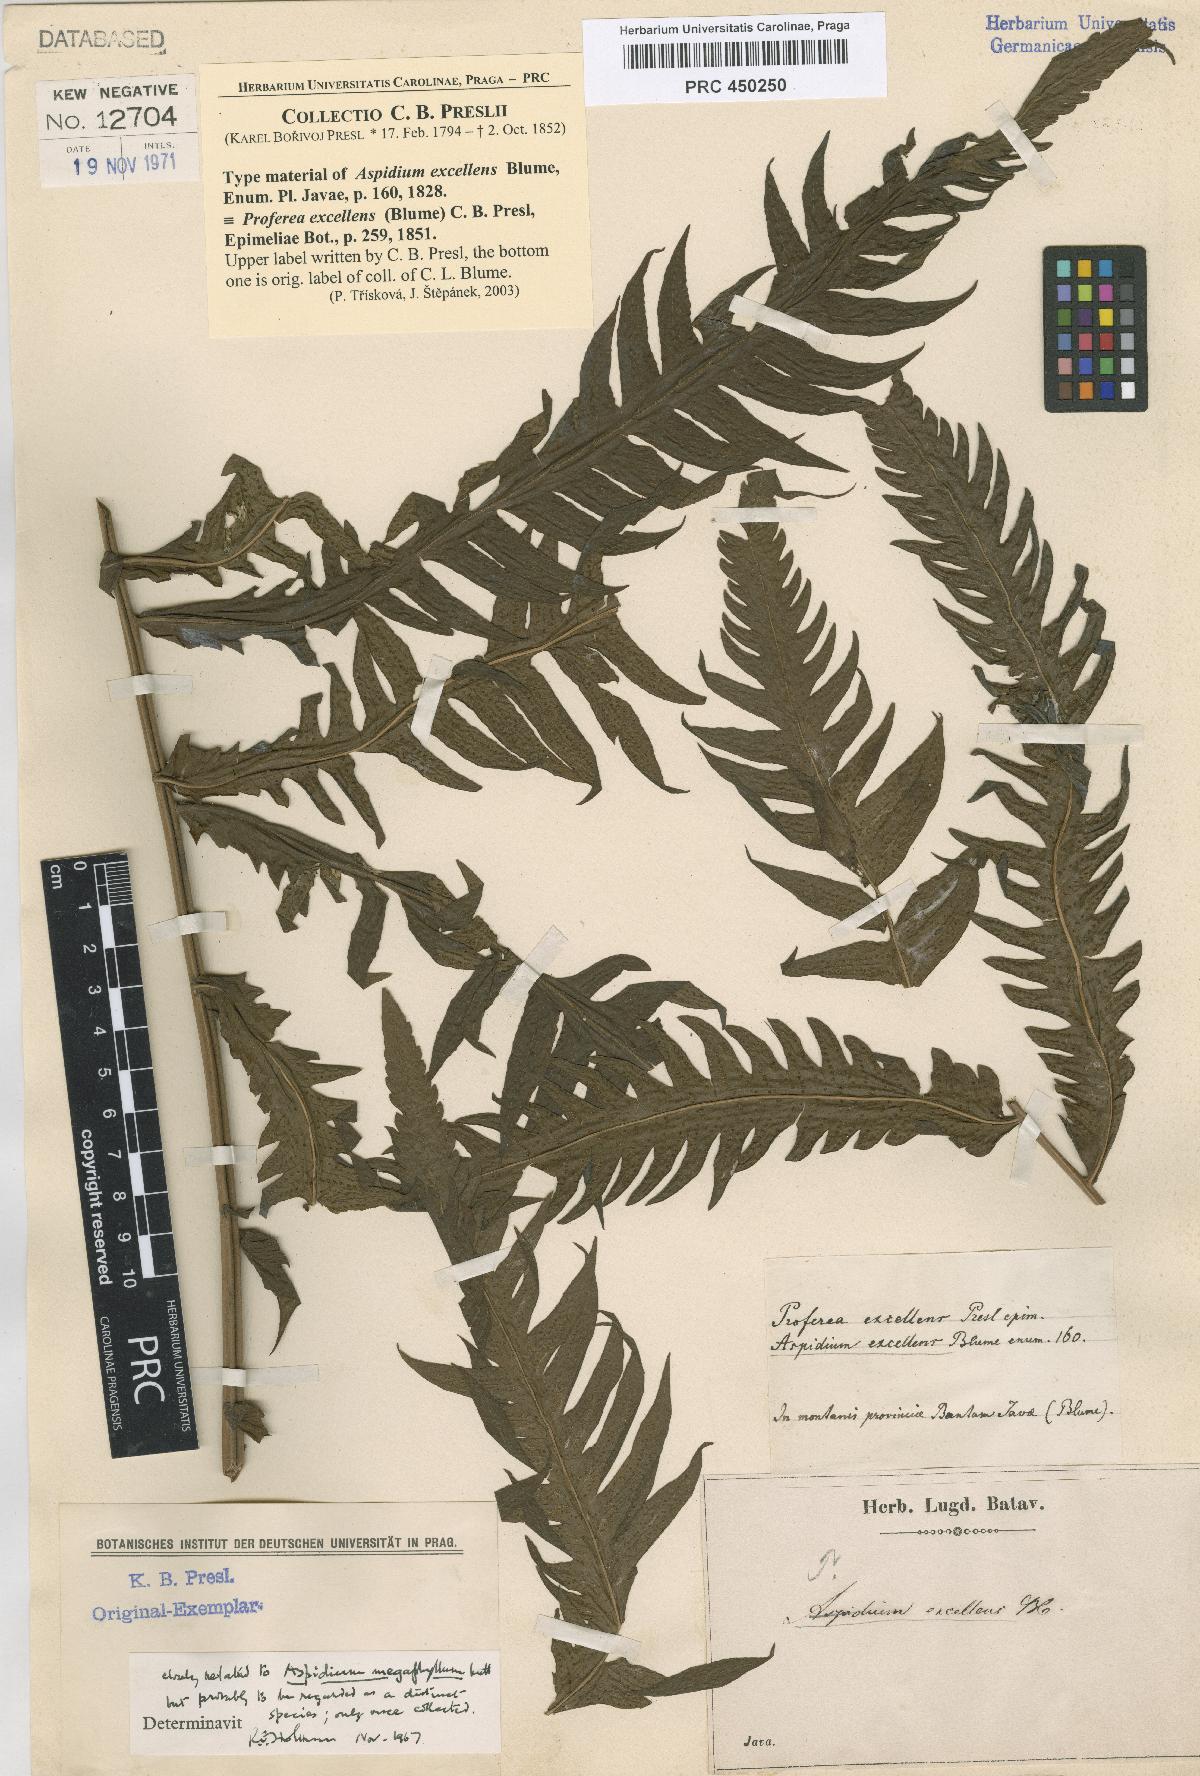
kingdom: Plantae
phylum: Tracheophyta
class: Polypodiopsida
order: Polypodiales
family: Thelypteridaceae
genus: Sphaerostephanos
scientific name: Sphaerostephanos penniger
